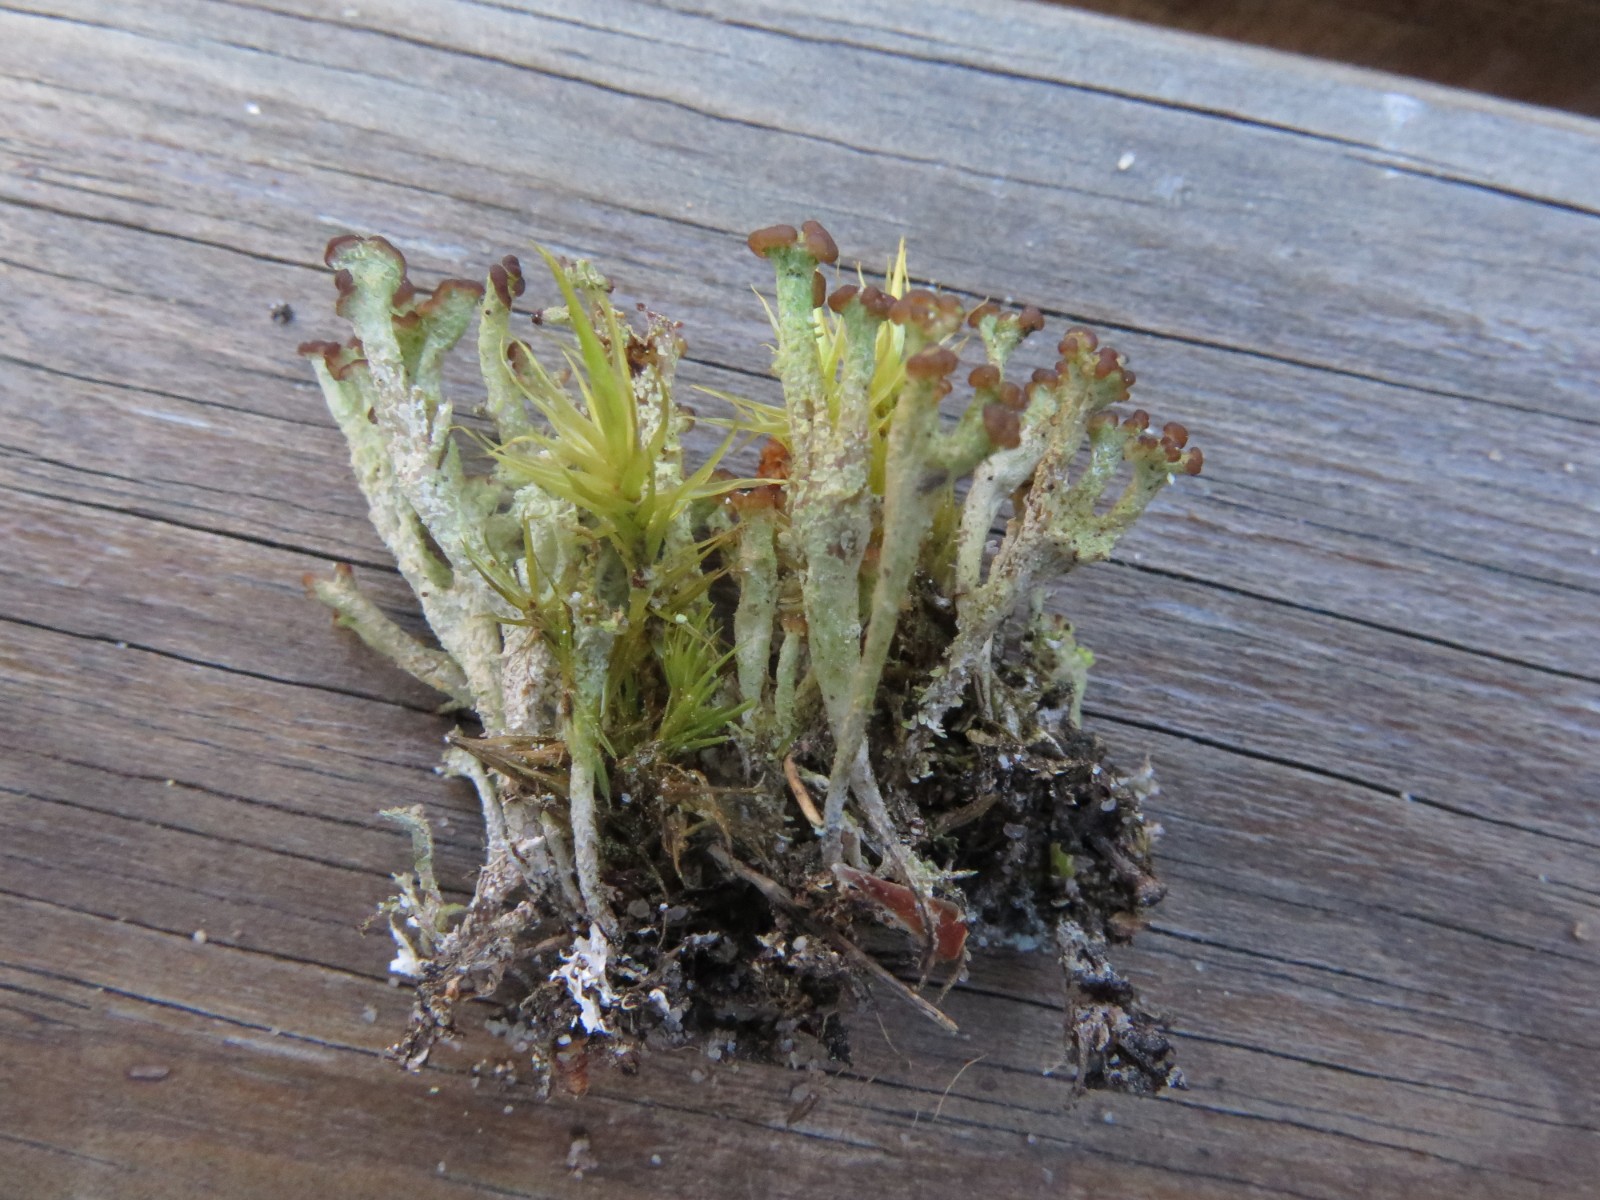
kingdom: Fungi
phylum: Ascomycota
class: Lecanoromycetes
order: Lecanorales
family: Cladoniaceae
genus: Cladonia
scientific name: Cladonia ramulosa
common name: kliddet bægerlav
